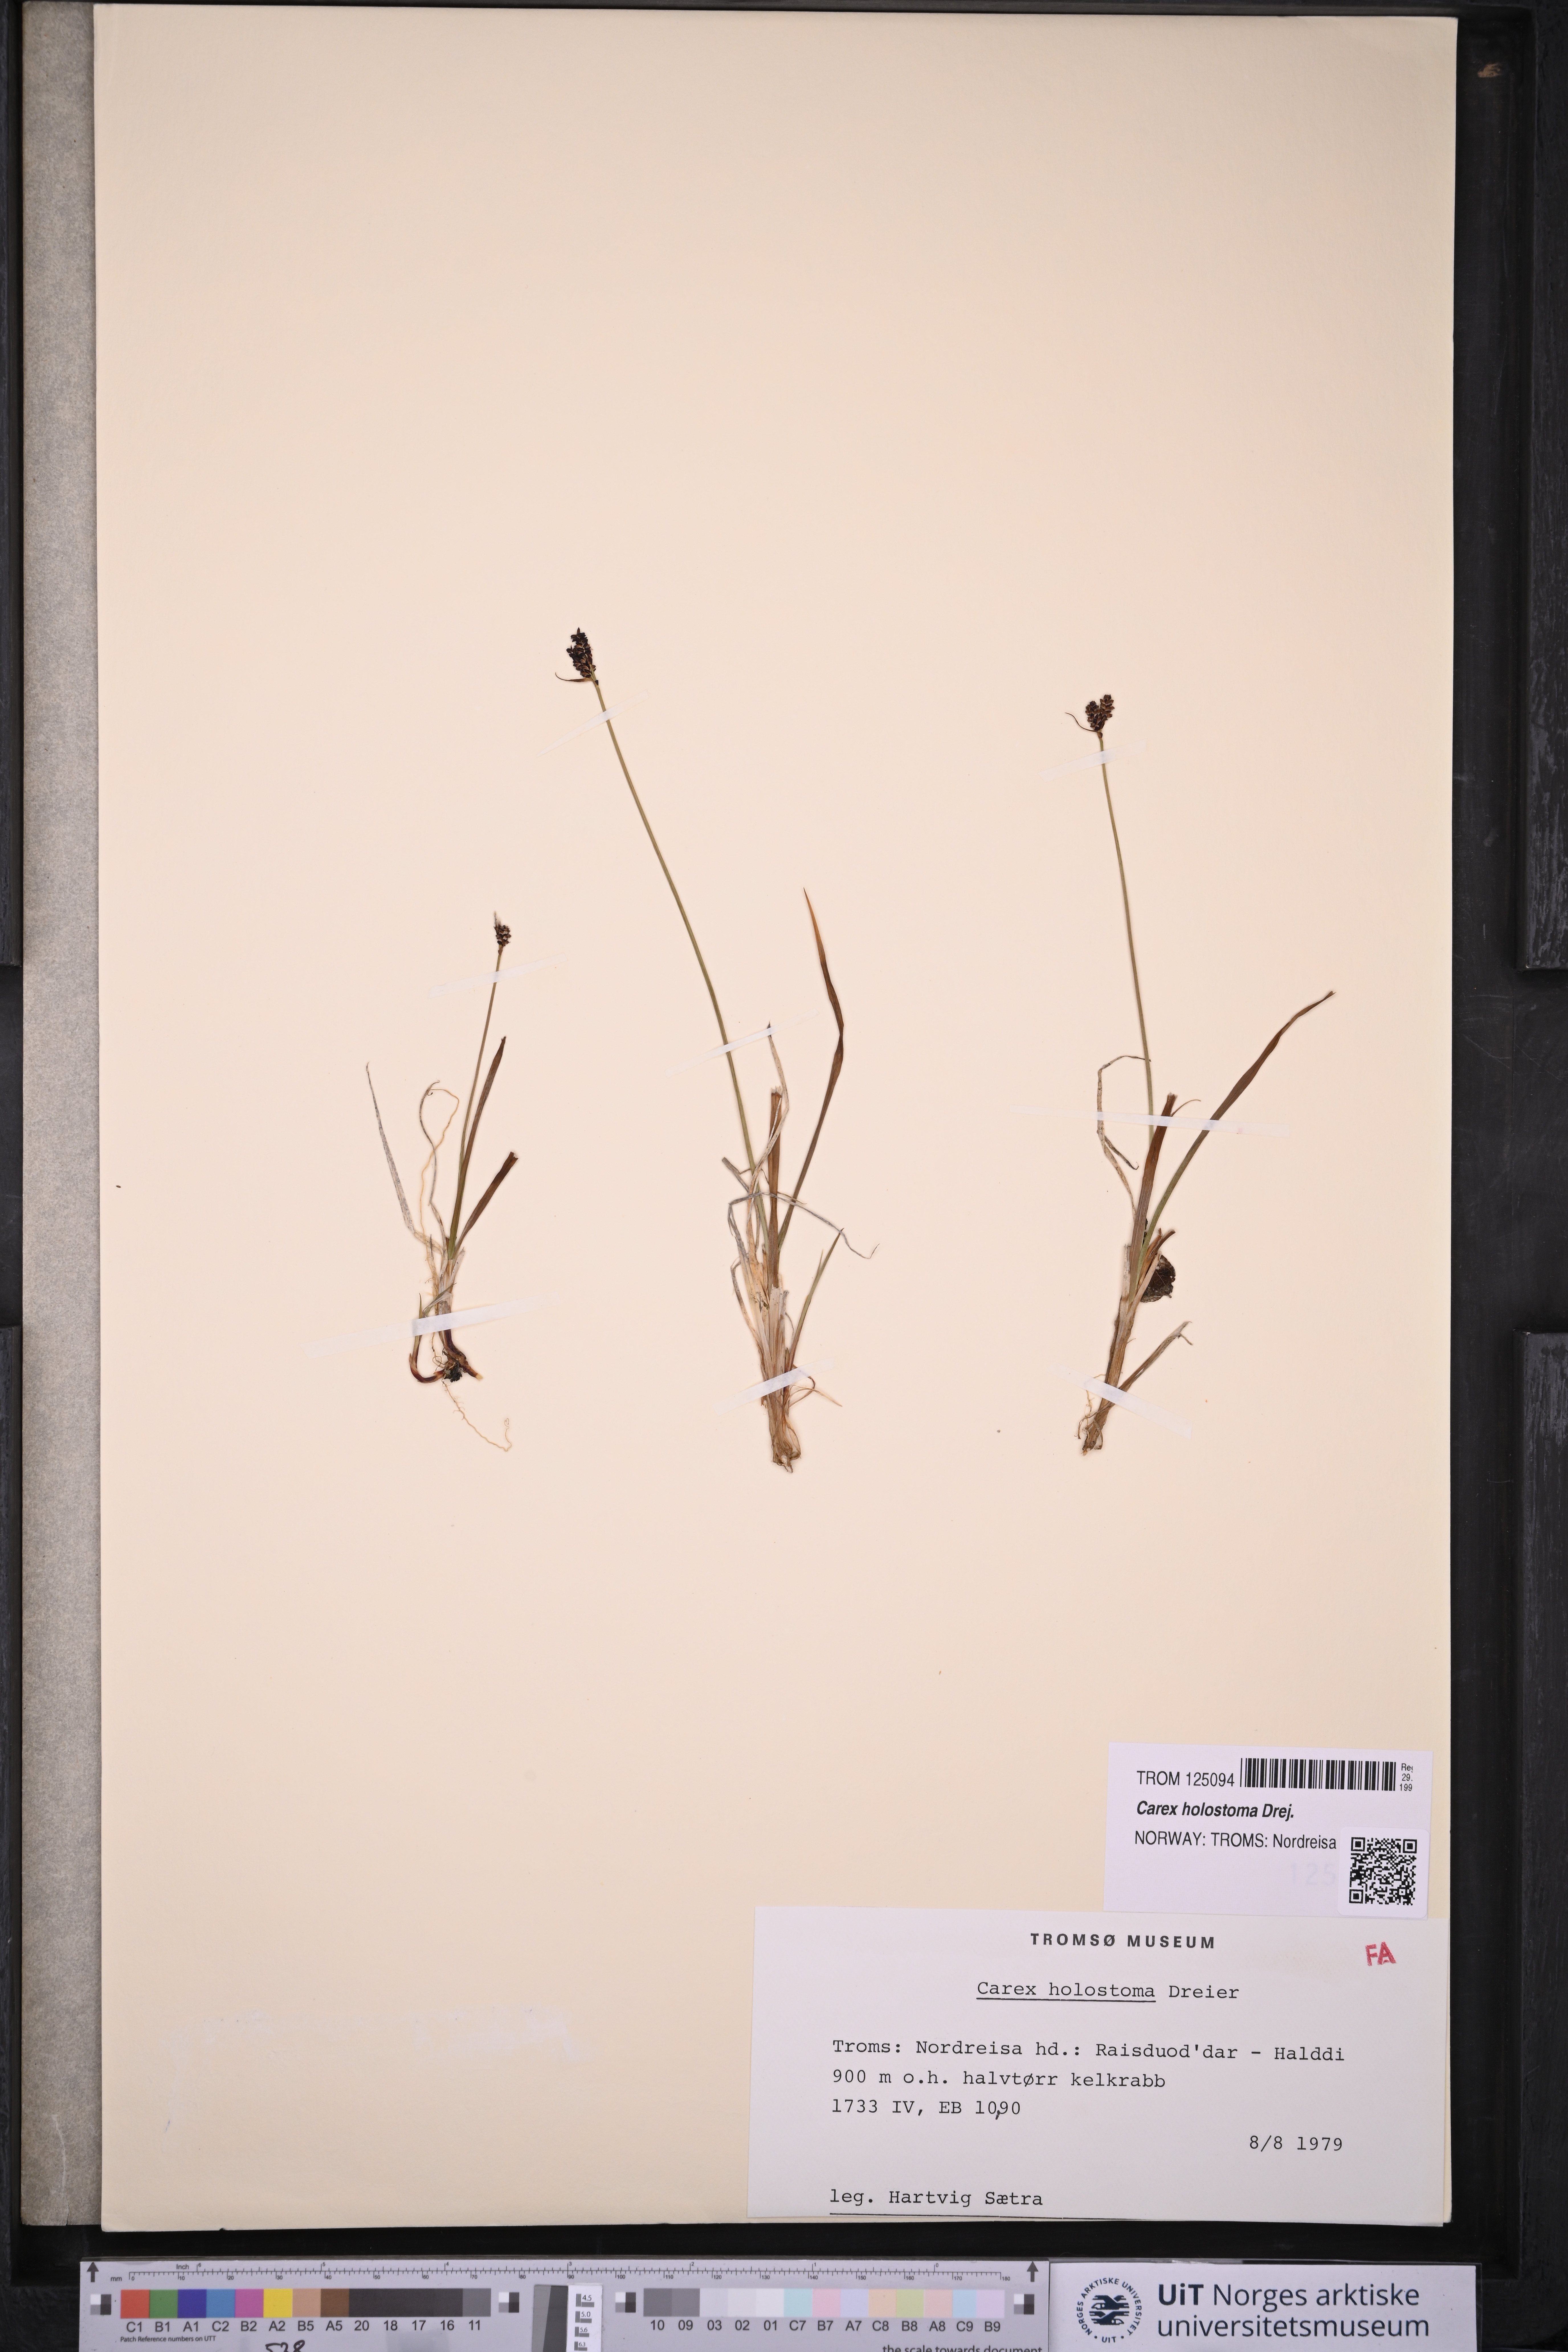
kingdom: Plantae
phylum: Tracheophyta
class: Liliopsida
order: Poales
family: Cyperaceae
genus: Carex
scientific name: Carex holostoma
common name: Arctic marsh sedge
